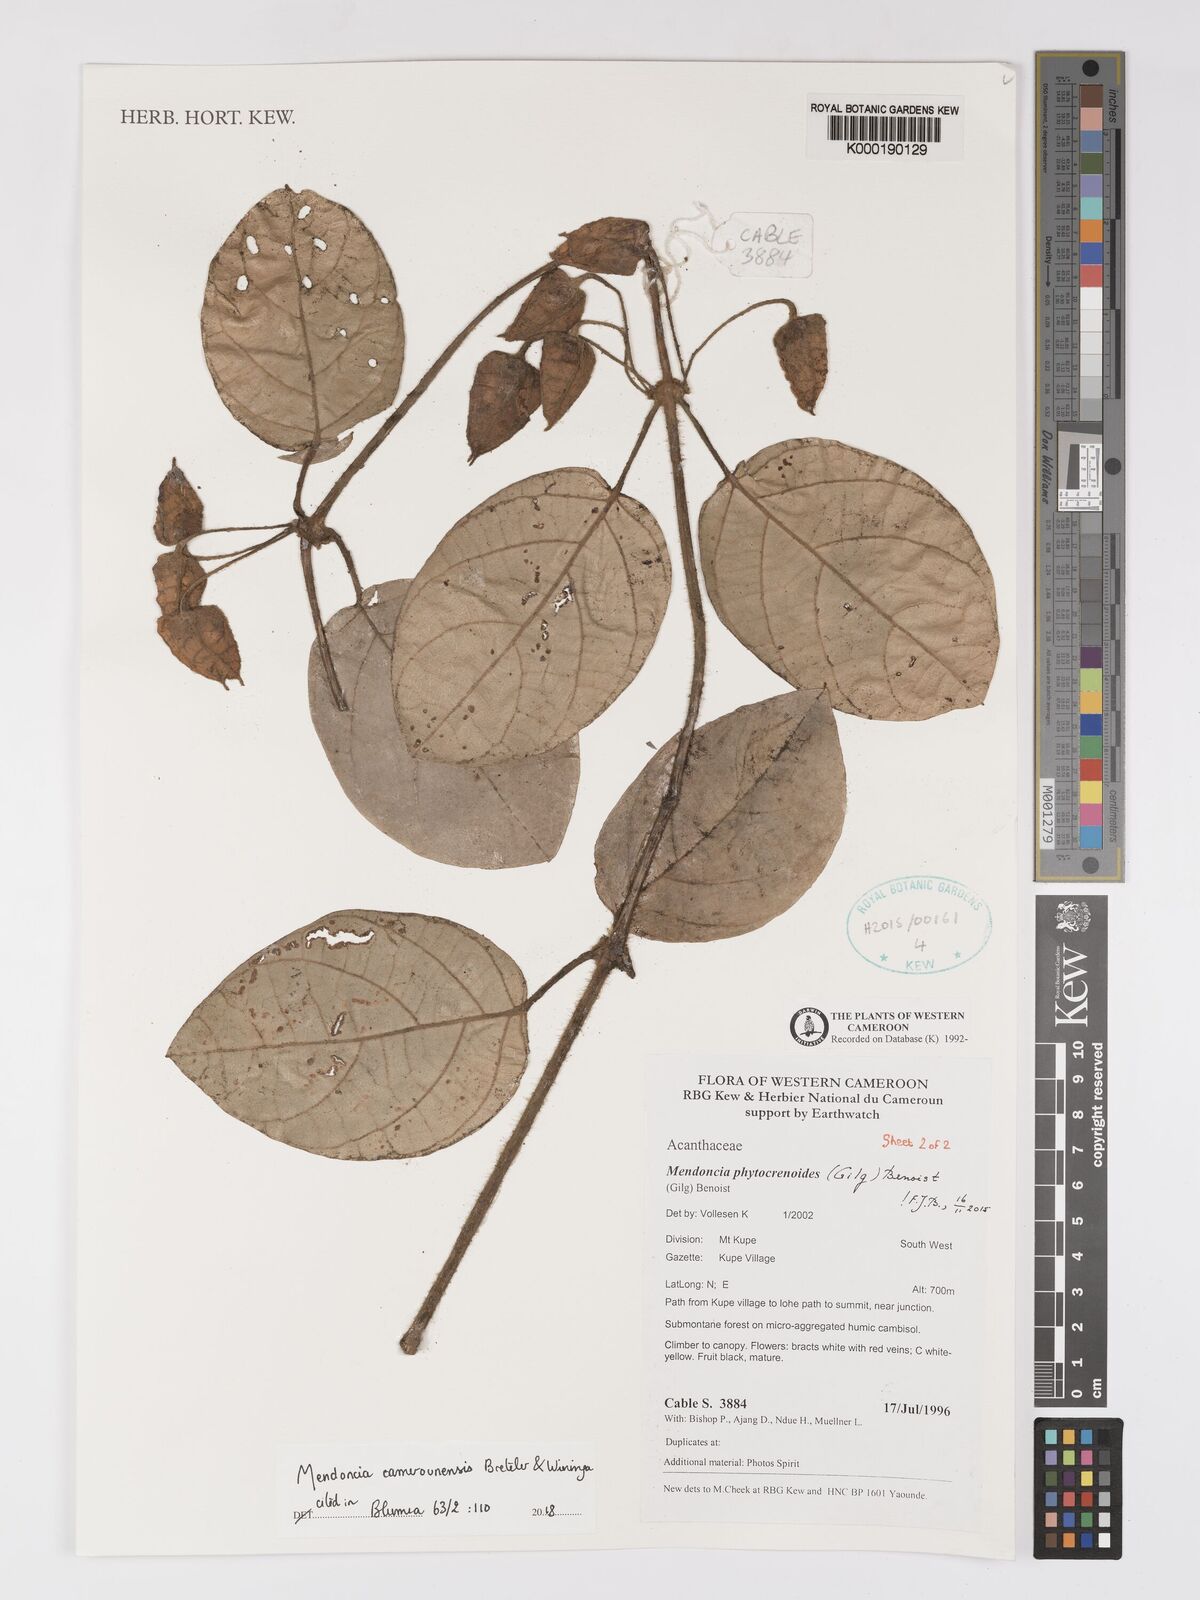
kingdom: Plantae
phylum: Tracheophyta
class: Magnoliopsida
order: Lamiales
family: Acanthaceae
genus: Mendoncia
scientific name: Mendoncia
